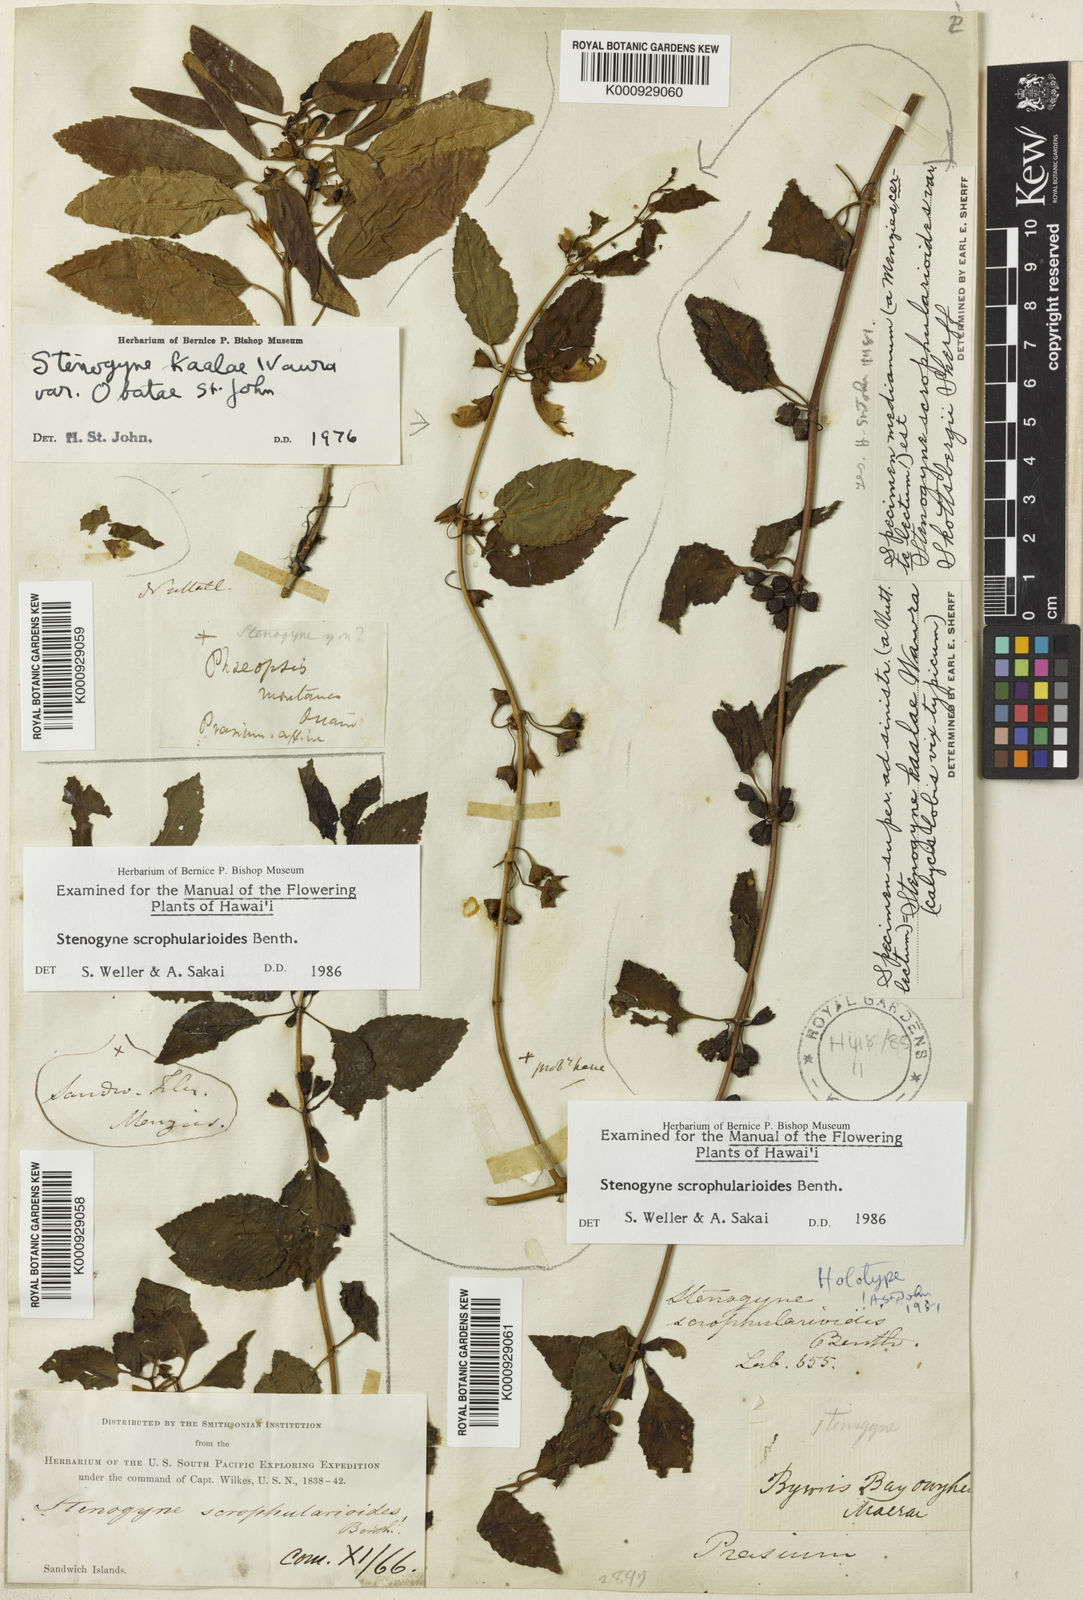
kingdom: Plantae
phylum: Tracheophyta
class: Magnoliopsida
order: Lamiales
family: Lamiaceae
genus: Stenogyne
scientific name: Stenogyne scrophularioides
